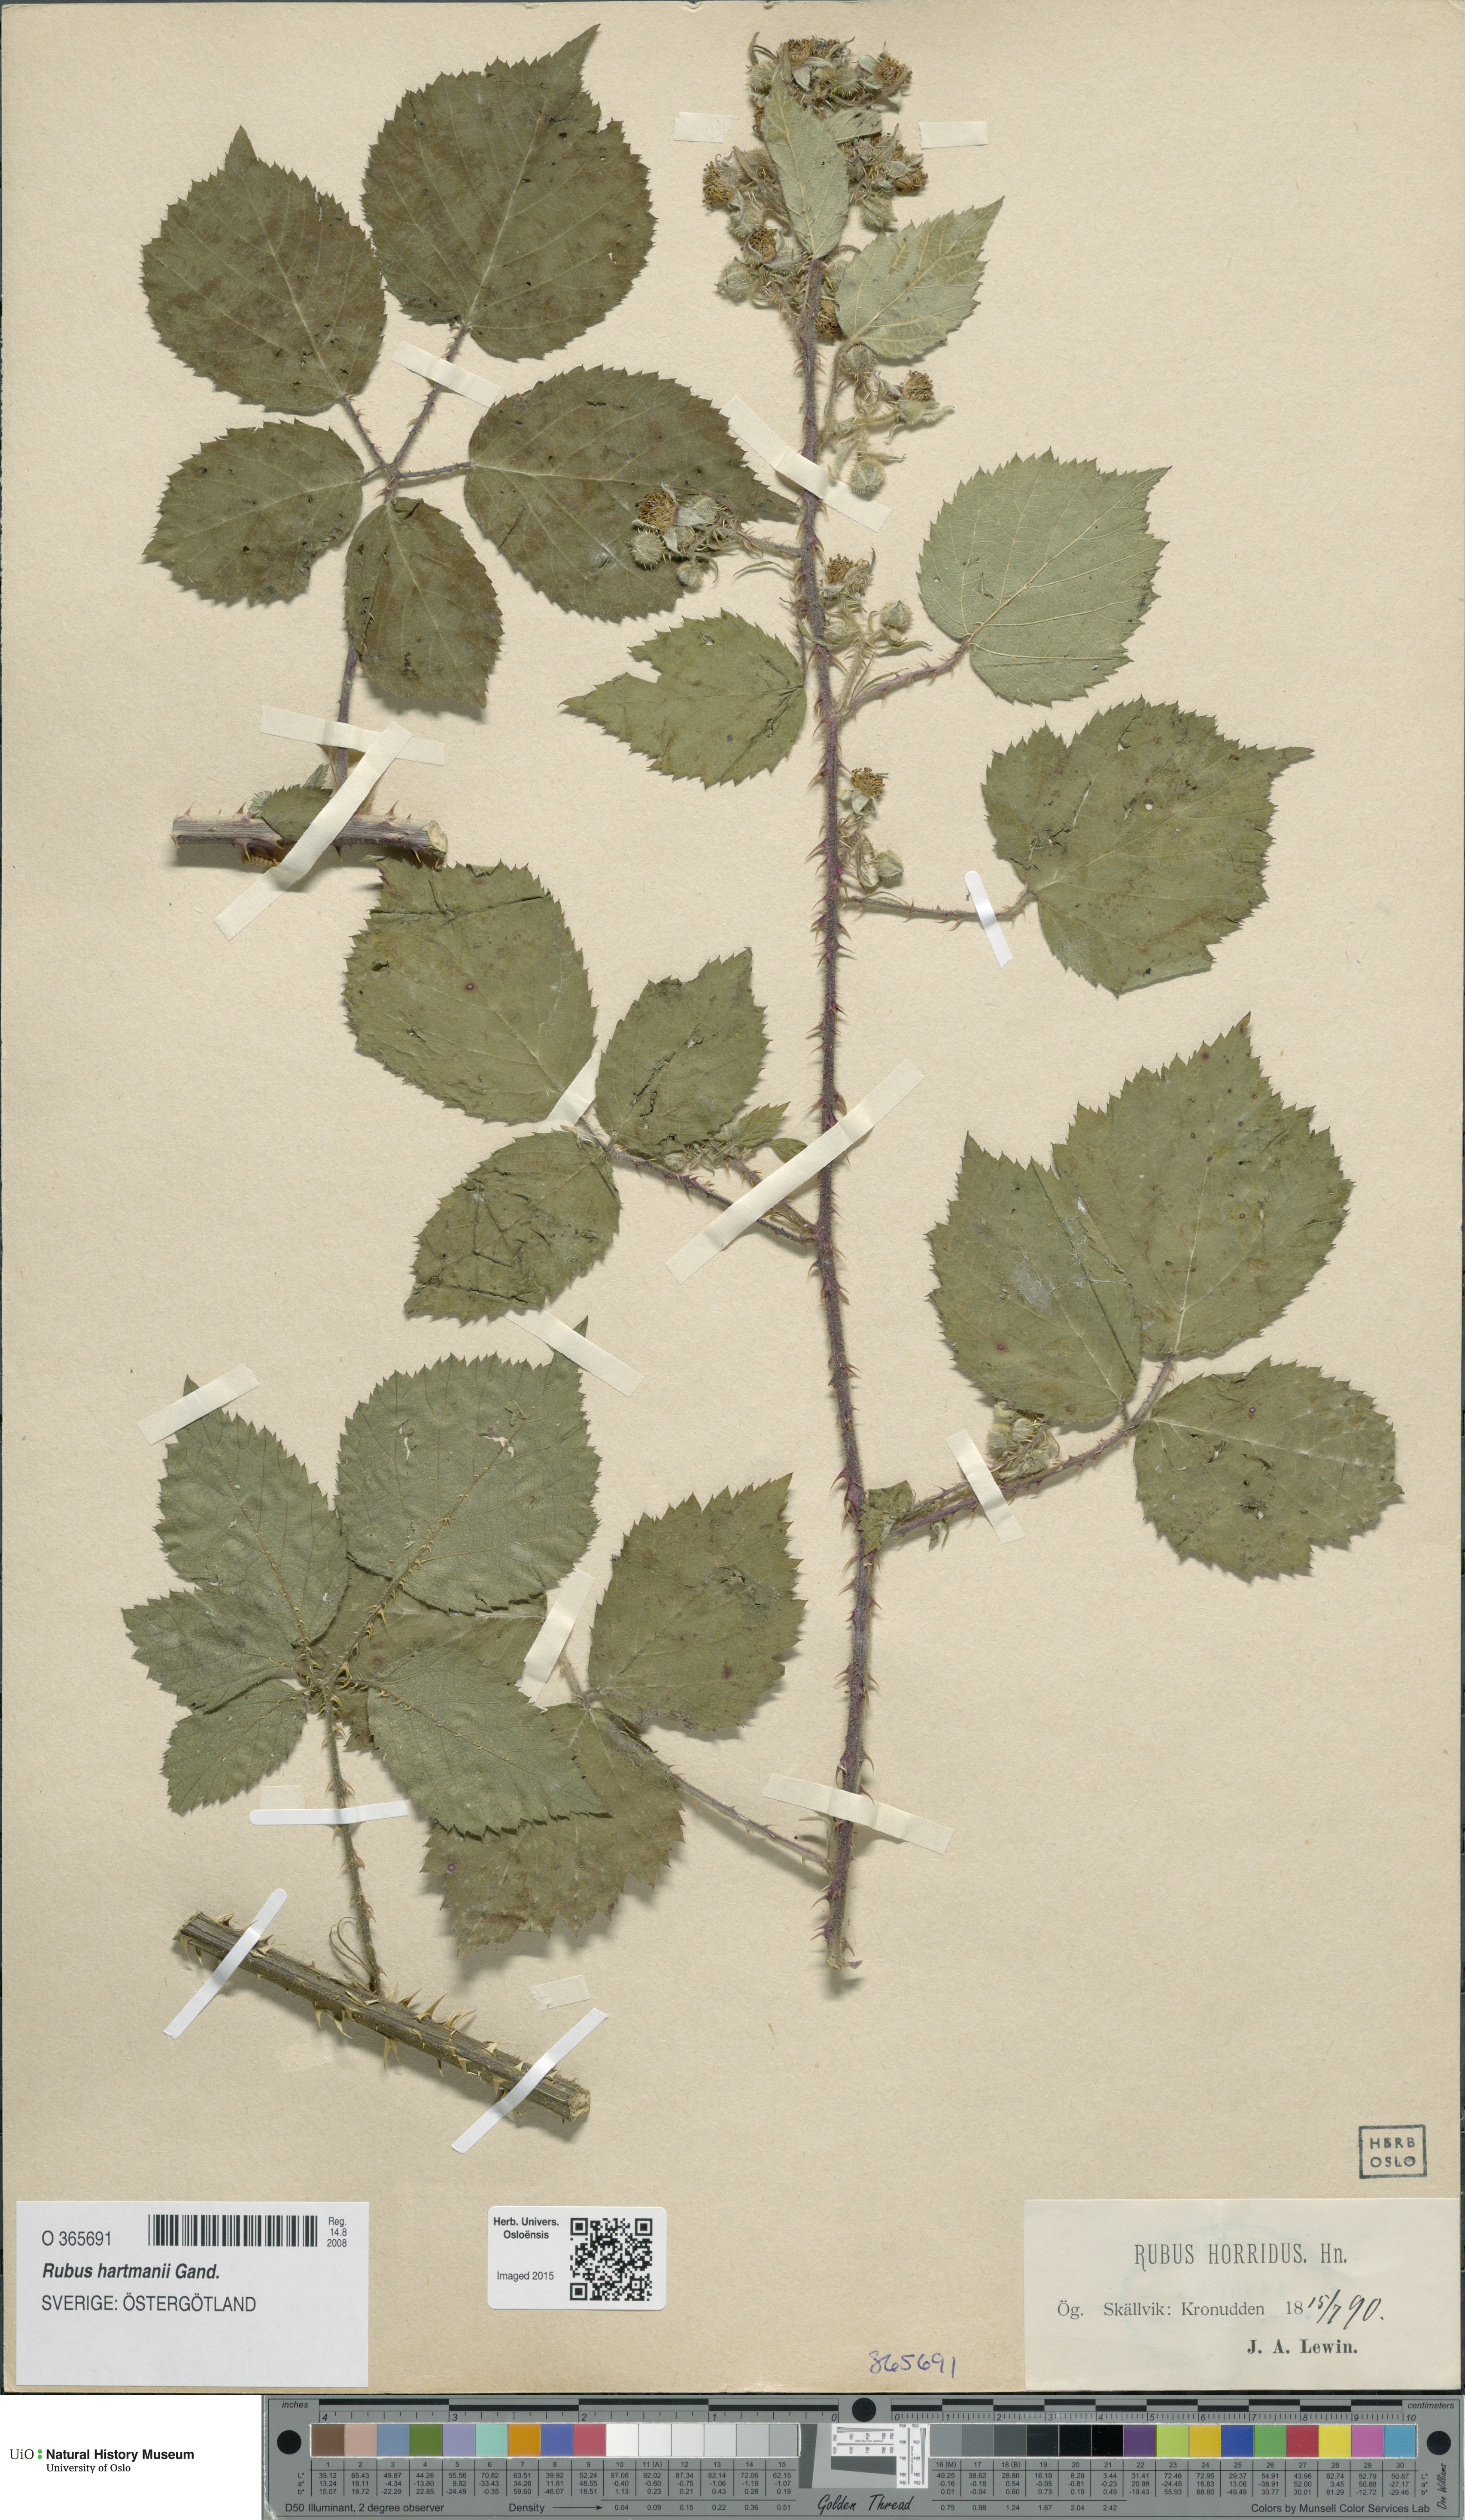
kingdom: Plantae
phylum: Tracheophyta
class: Magnoliopsida
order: Rosales
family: Rosaceae
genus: Rubus
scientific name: Rubus hartmanii
